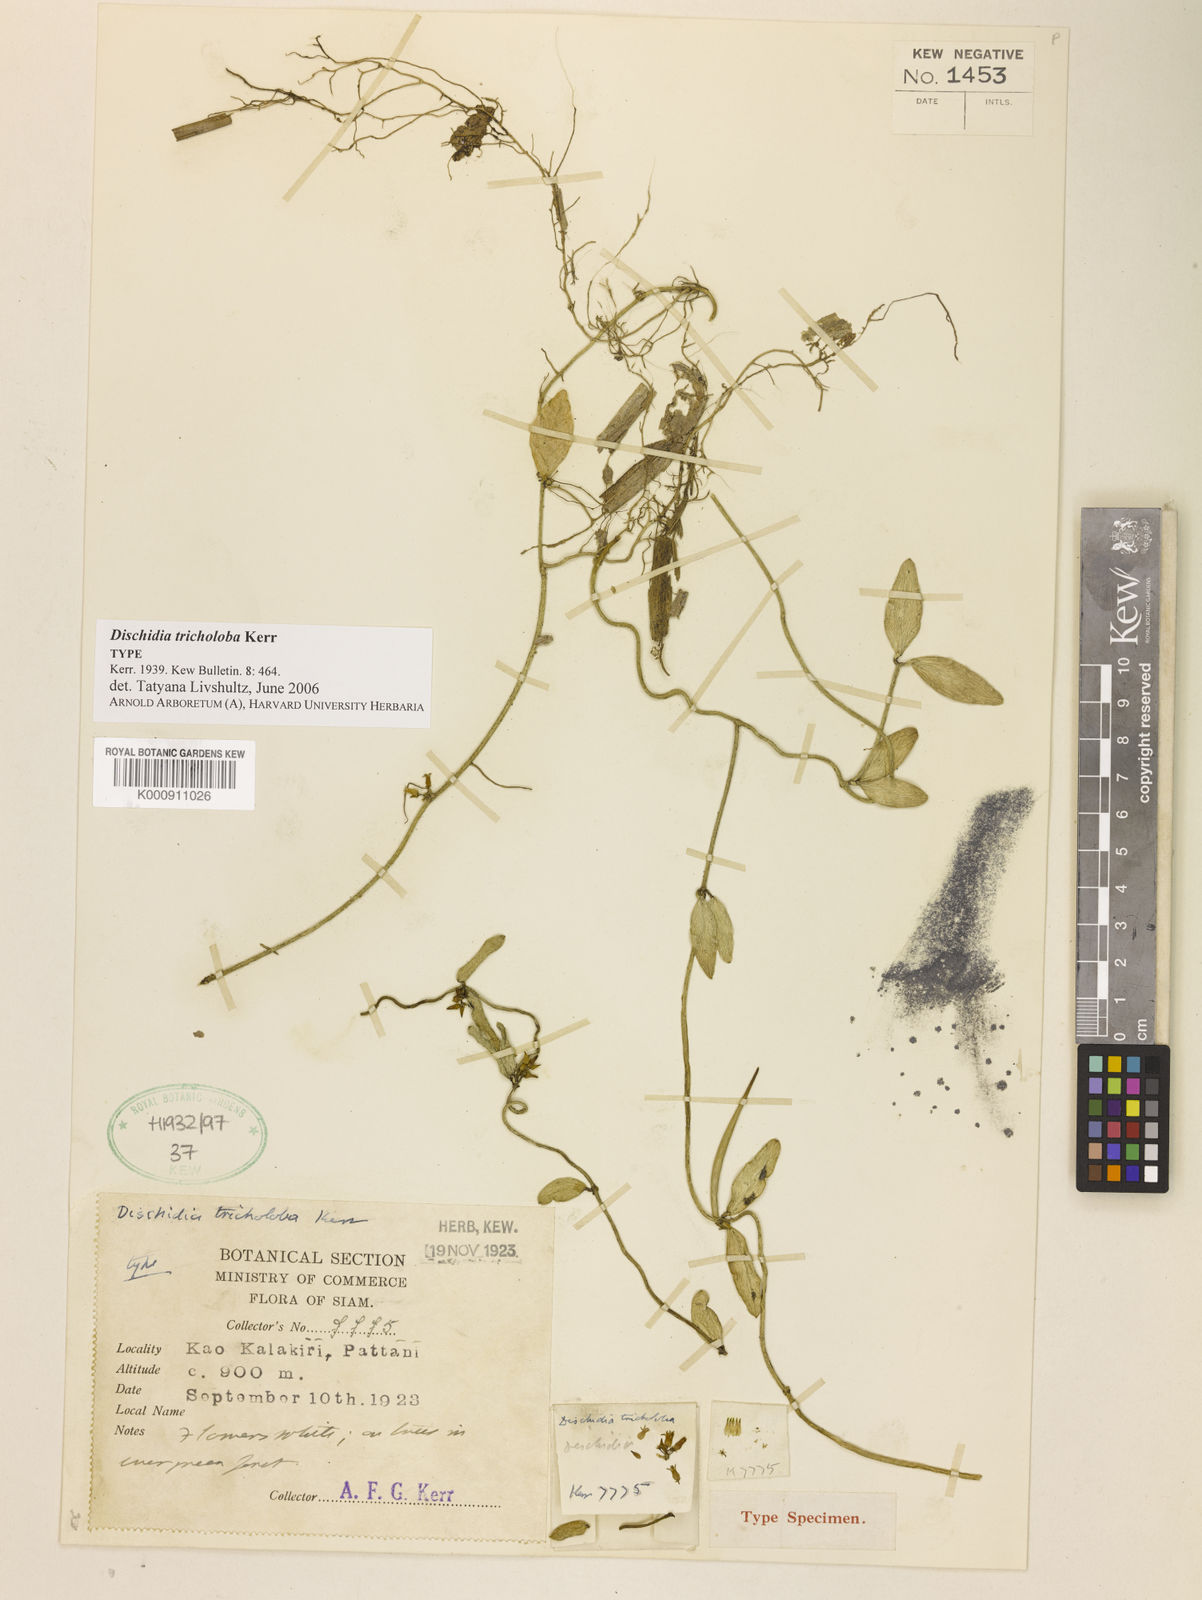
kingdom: Plantae
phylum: Tracheophyta
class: Magnoliopsida
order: Gentianales
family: Apocynaceae
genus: Dischidia
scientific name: Dischidia tricholoba
